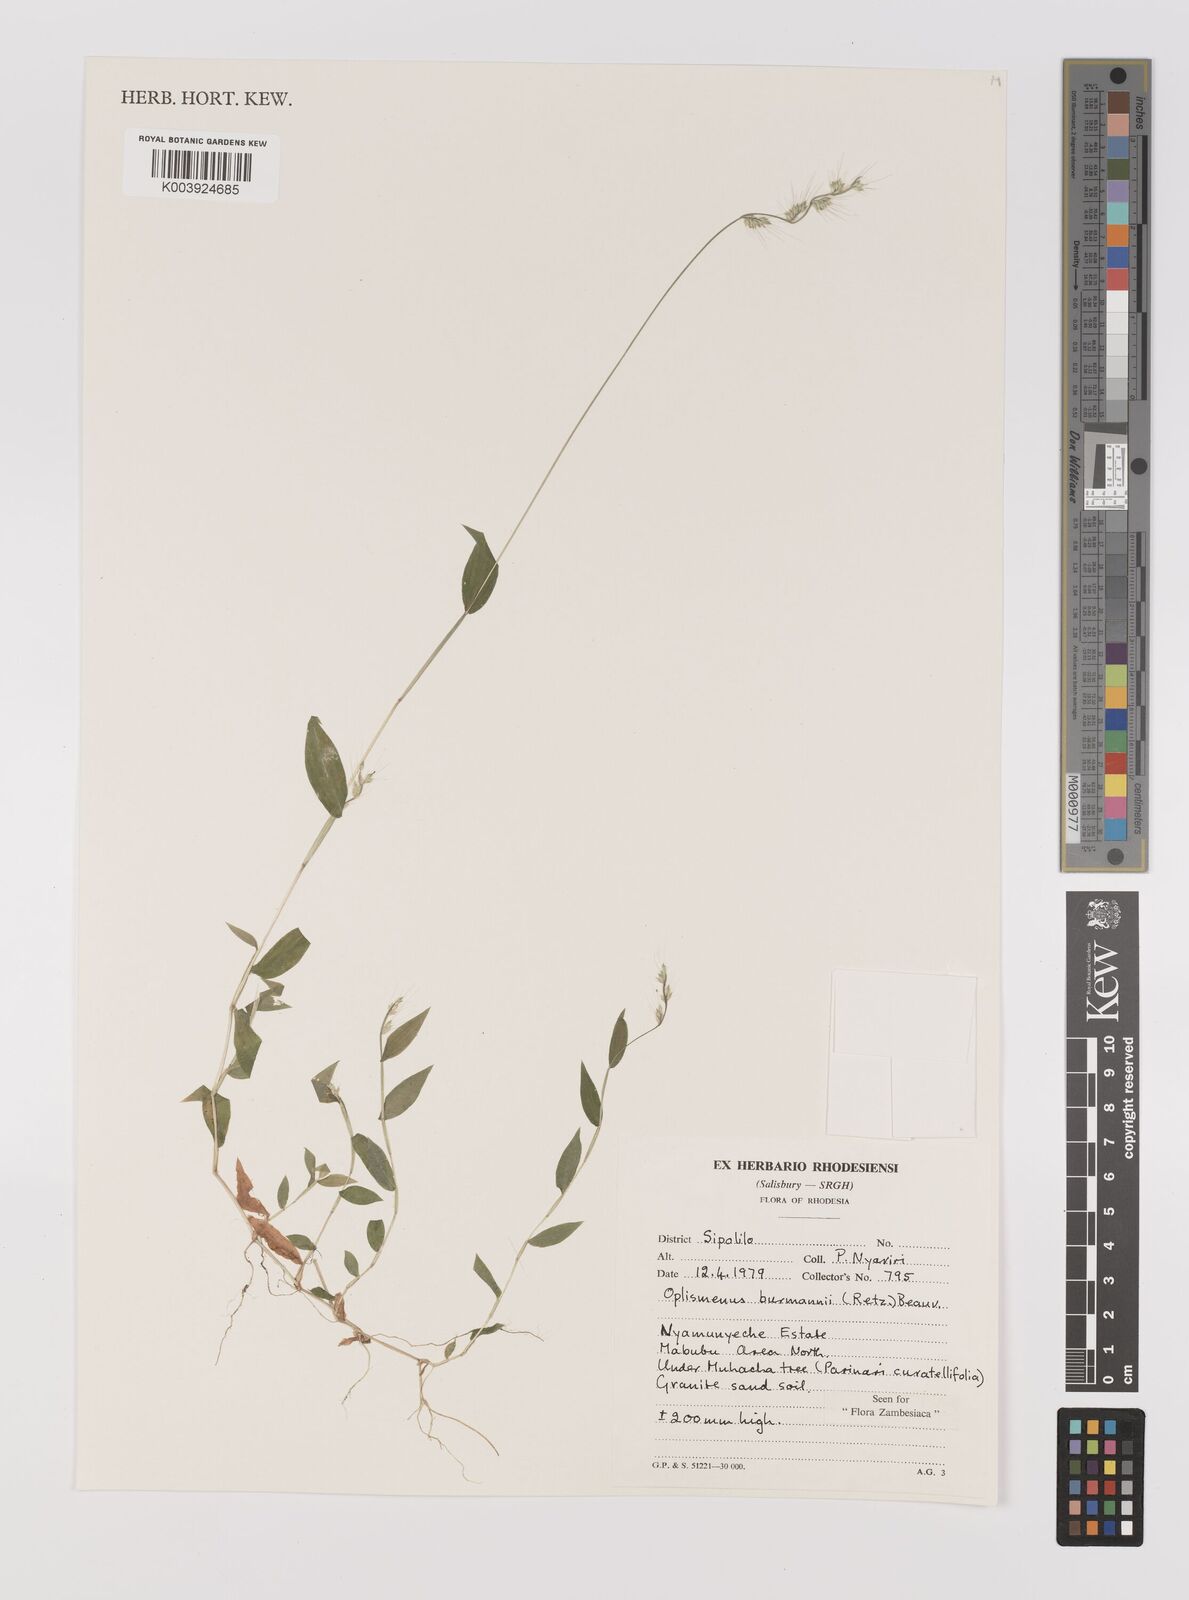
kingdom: Plantae
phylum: Tracheophyta
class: Liliopsida
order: Poales
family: Poaceae
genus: Oplismenus
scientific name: Oplismenus burmanni
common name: Burmann's basketgrass
